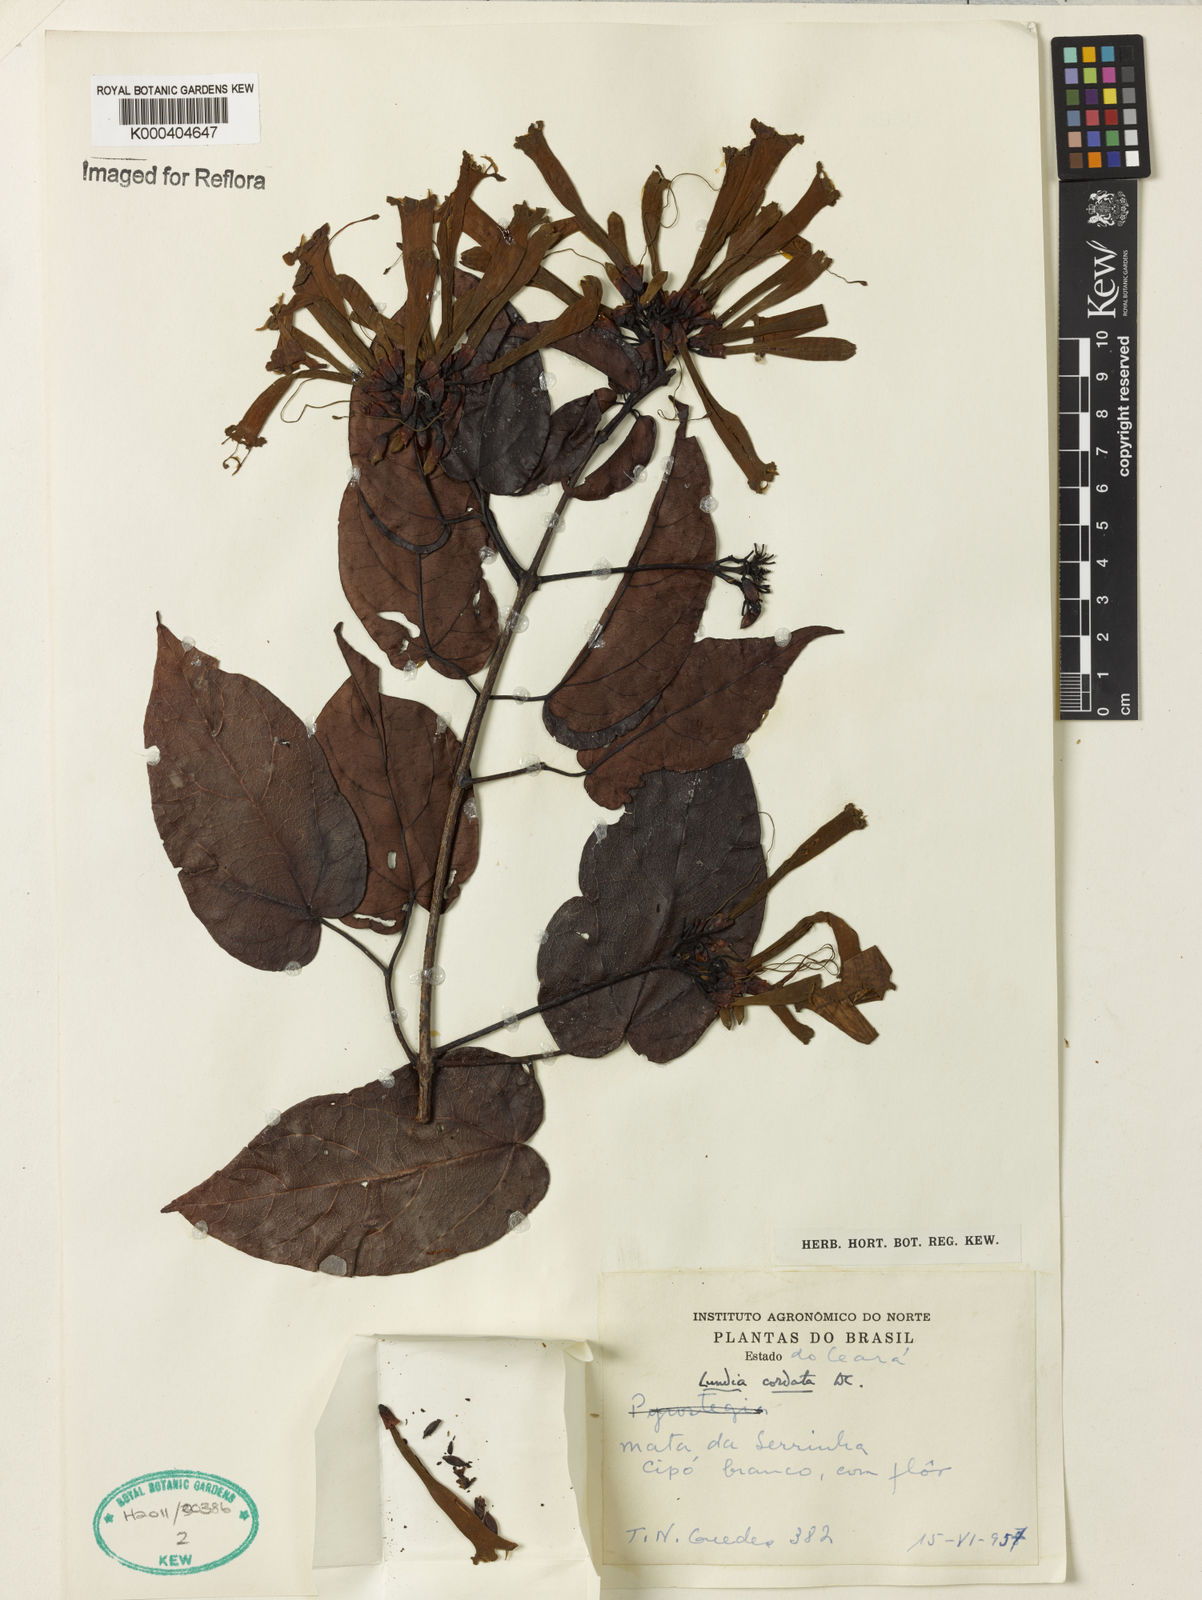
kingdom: Plantae
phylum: Tracheophyta
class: Magnoliopsida
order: Lamiales
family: Bignoniaceae
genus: Lundia
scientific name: Lundia corymbifera
